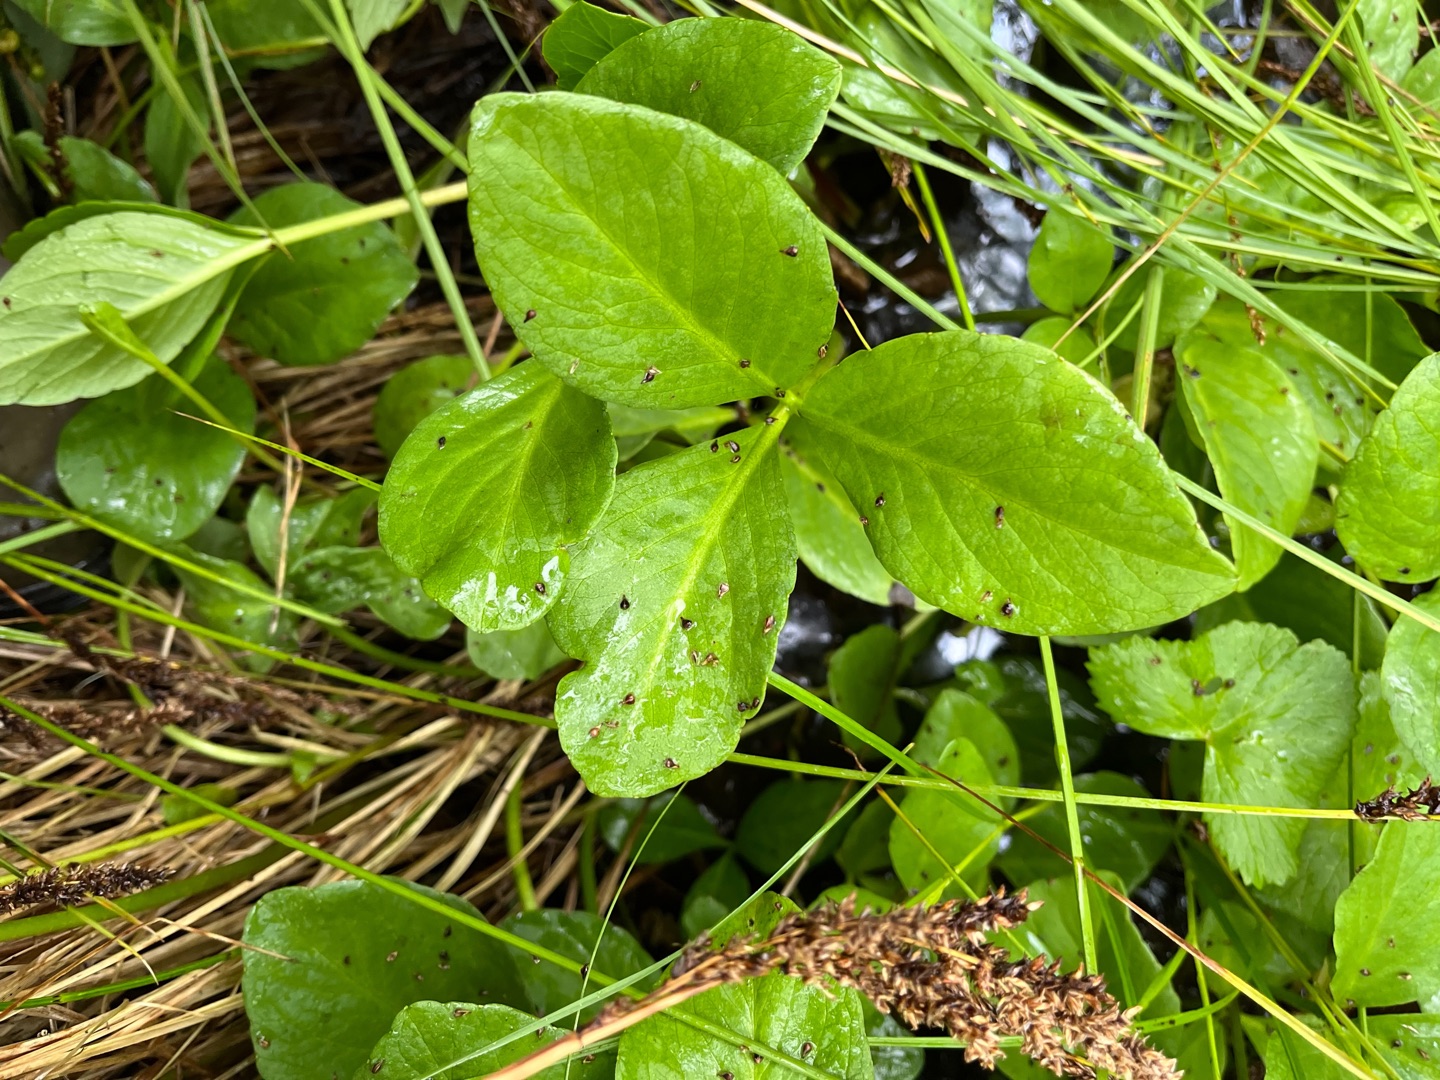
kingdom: Plantae
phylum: Tracheophyta
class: Magnoliopsida
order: Asterales
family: Menyanthaceae
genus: Menyanthes
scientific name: Menyanthes trifoliata
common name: Bukkeblad
